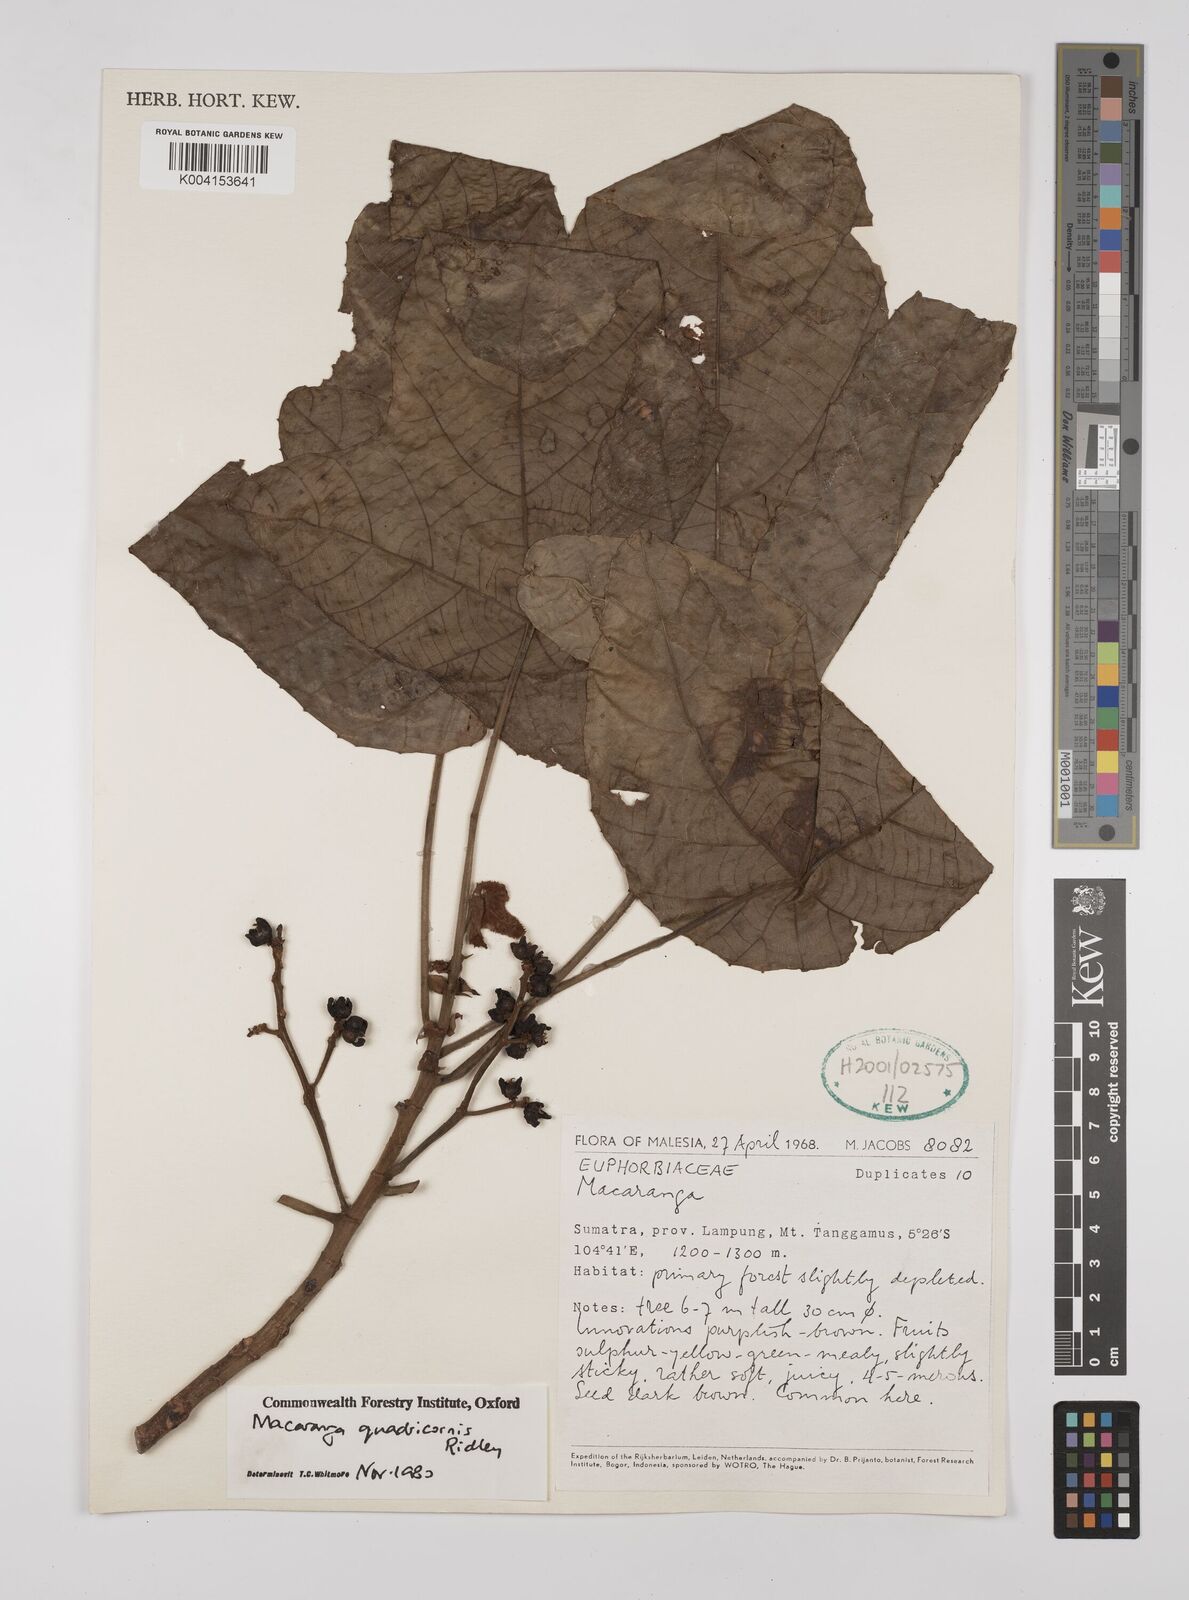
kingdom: Plantae
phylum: Tracheophyta
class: Magnoliopsida
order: Malpighiales
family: Euphorbiaceae
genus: Macaranga
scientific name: Macaranga triloba
